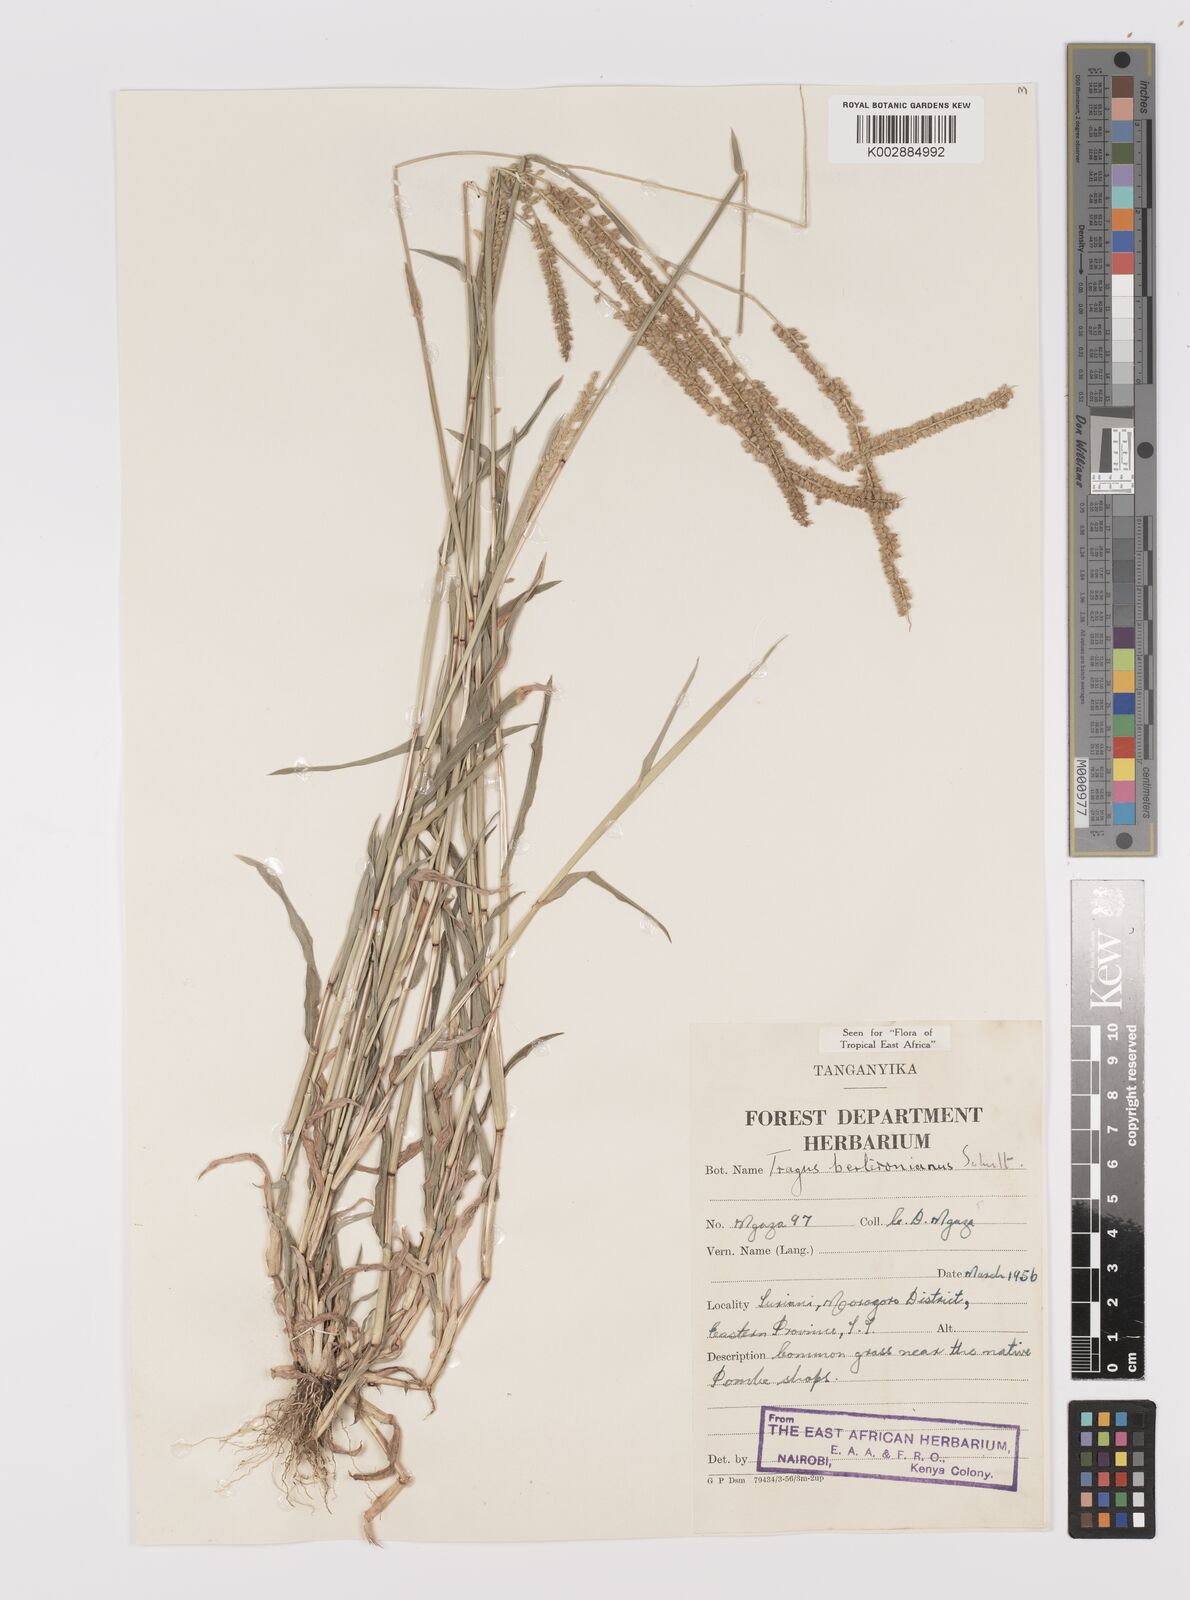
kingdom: Plantae
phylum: Tracheophyta
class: Liliopsida
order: Poales
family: Poaceae
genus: Tragus
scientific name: Tragus berteronianus
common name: African bur-grass
